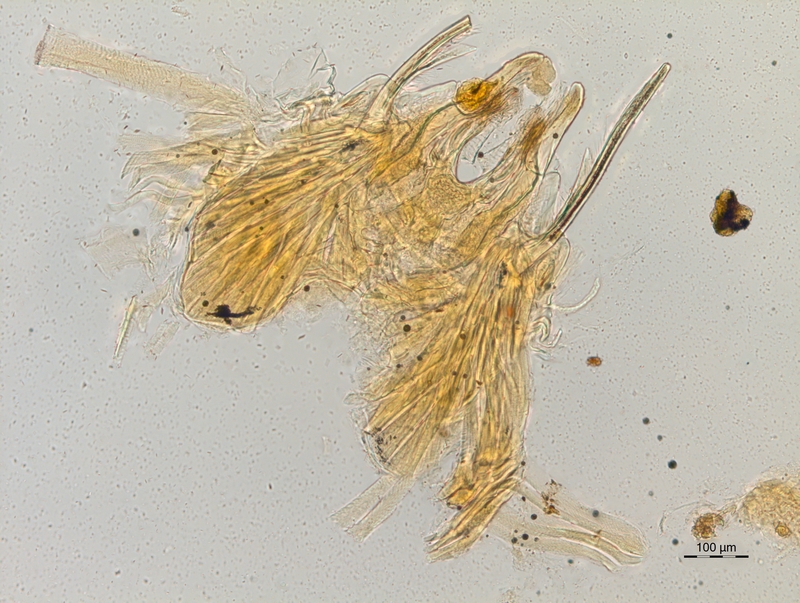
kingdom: Animalia
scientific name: Animalia
